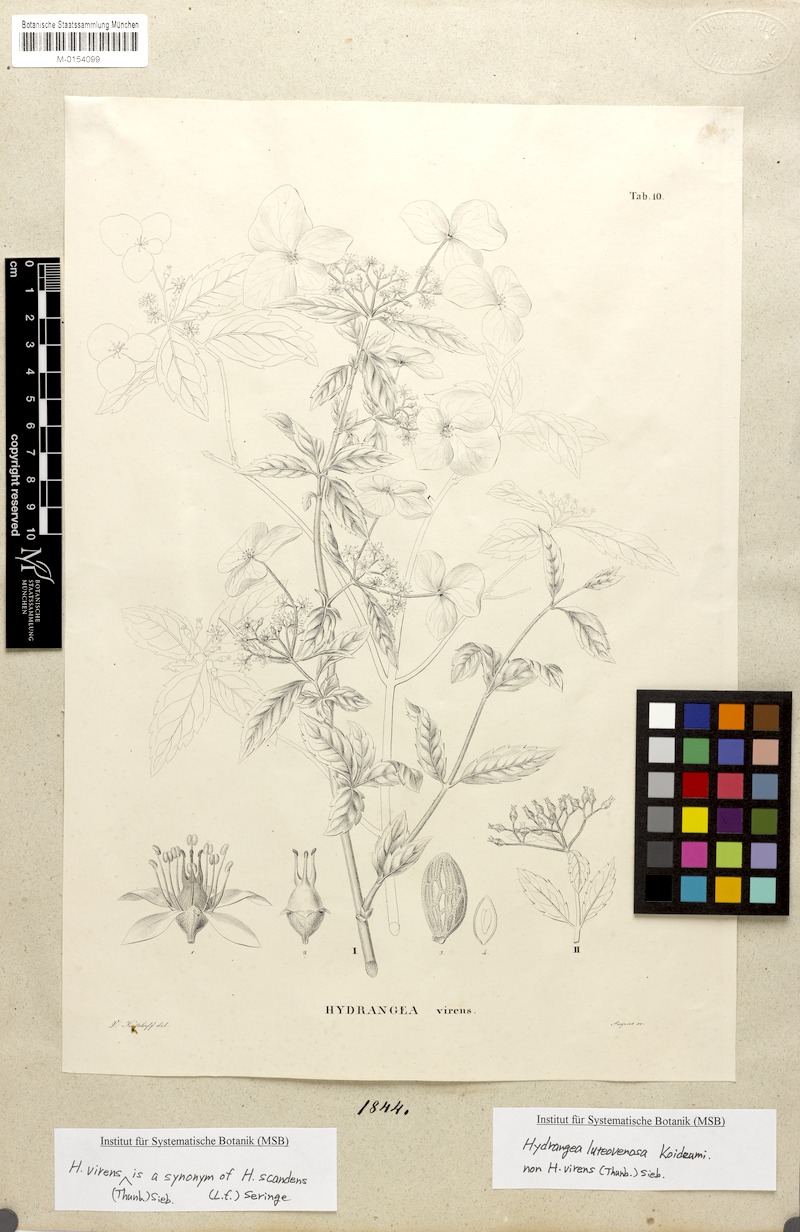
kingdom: Plantae
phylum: Tracheophyta
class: Magnoliopsida
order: Cornales
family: Hydrangeaceae
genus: Hydrangea
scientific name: Hydrangea luteovenosa
